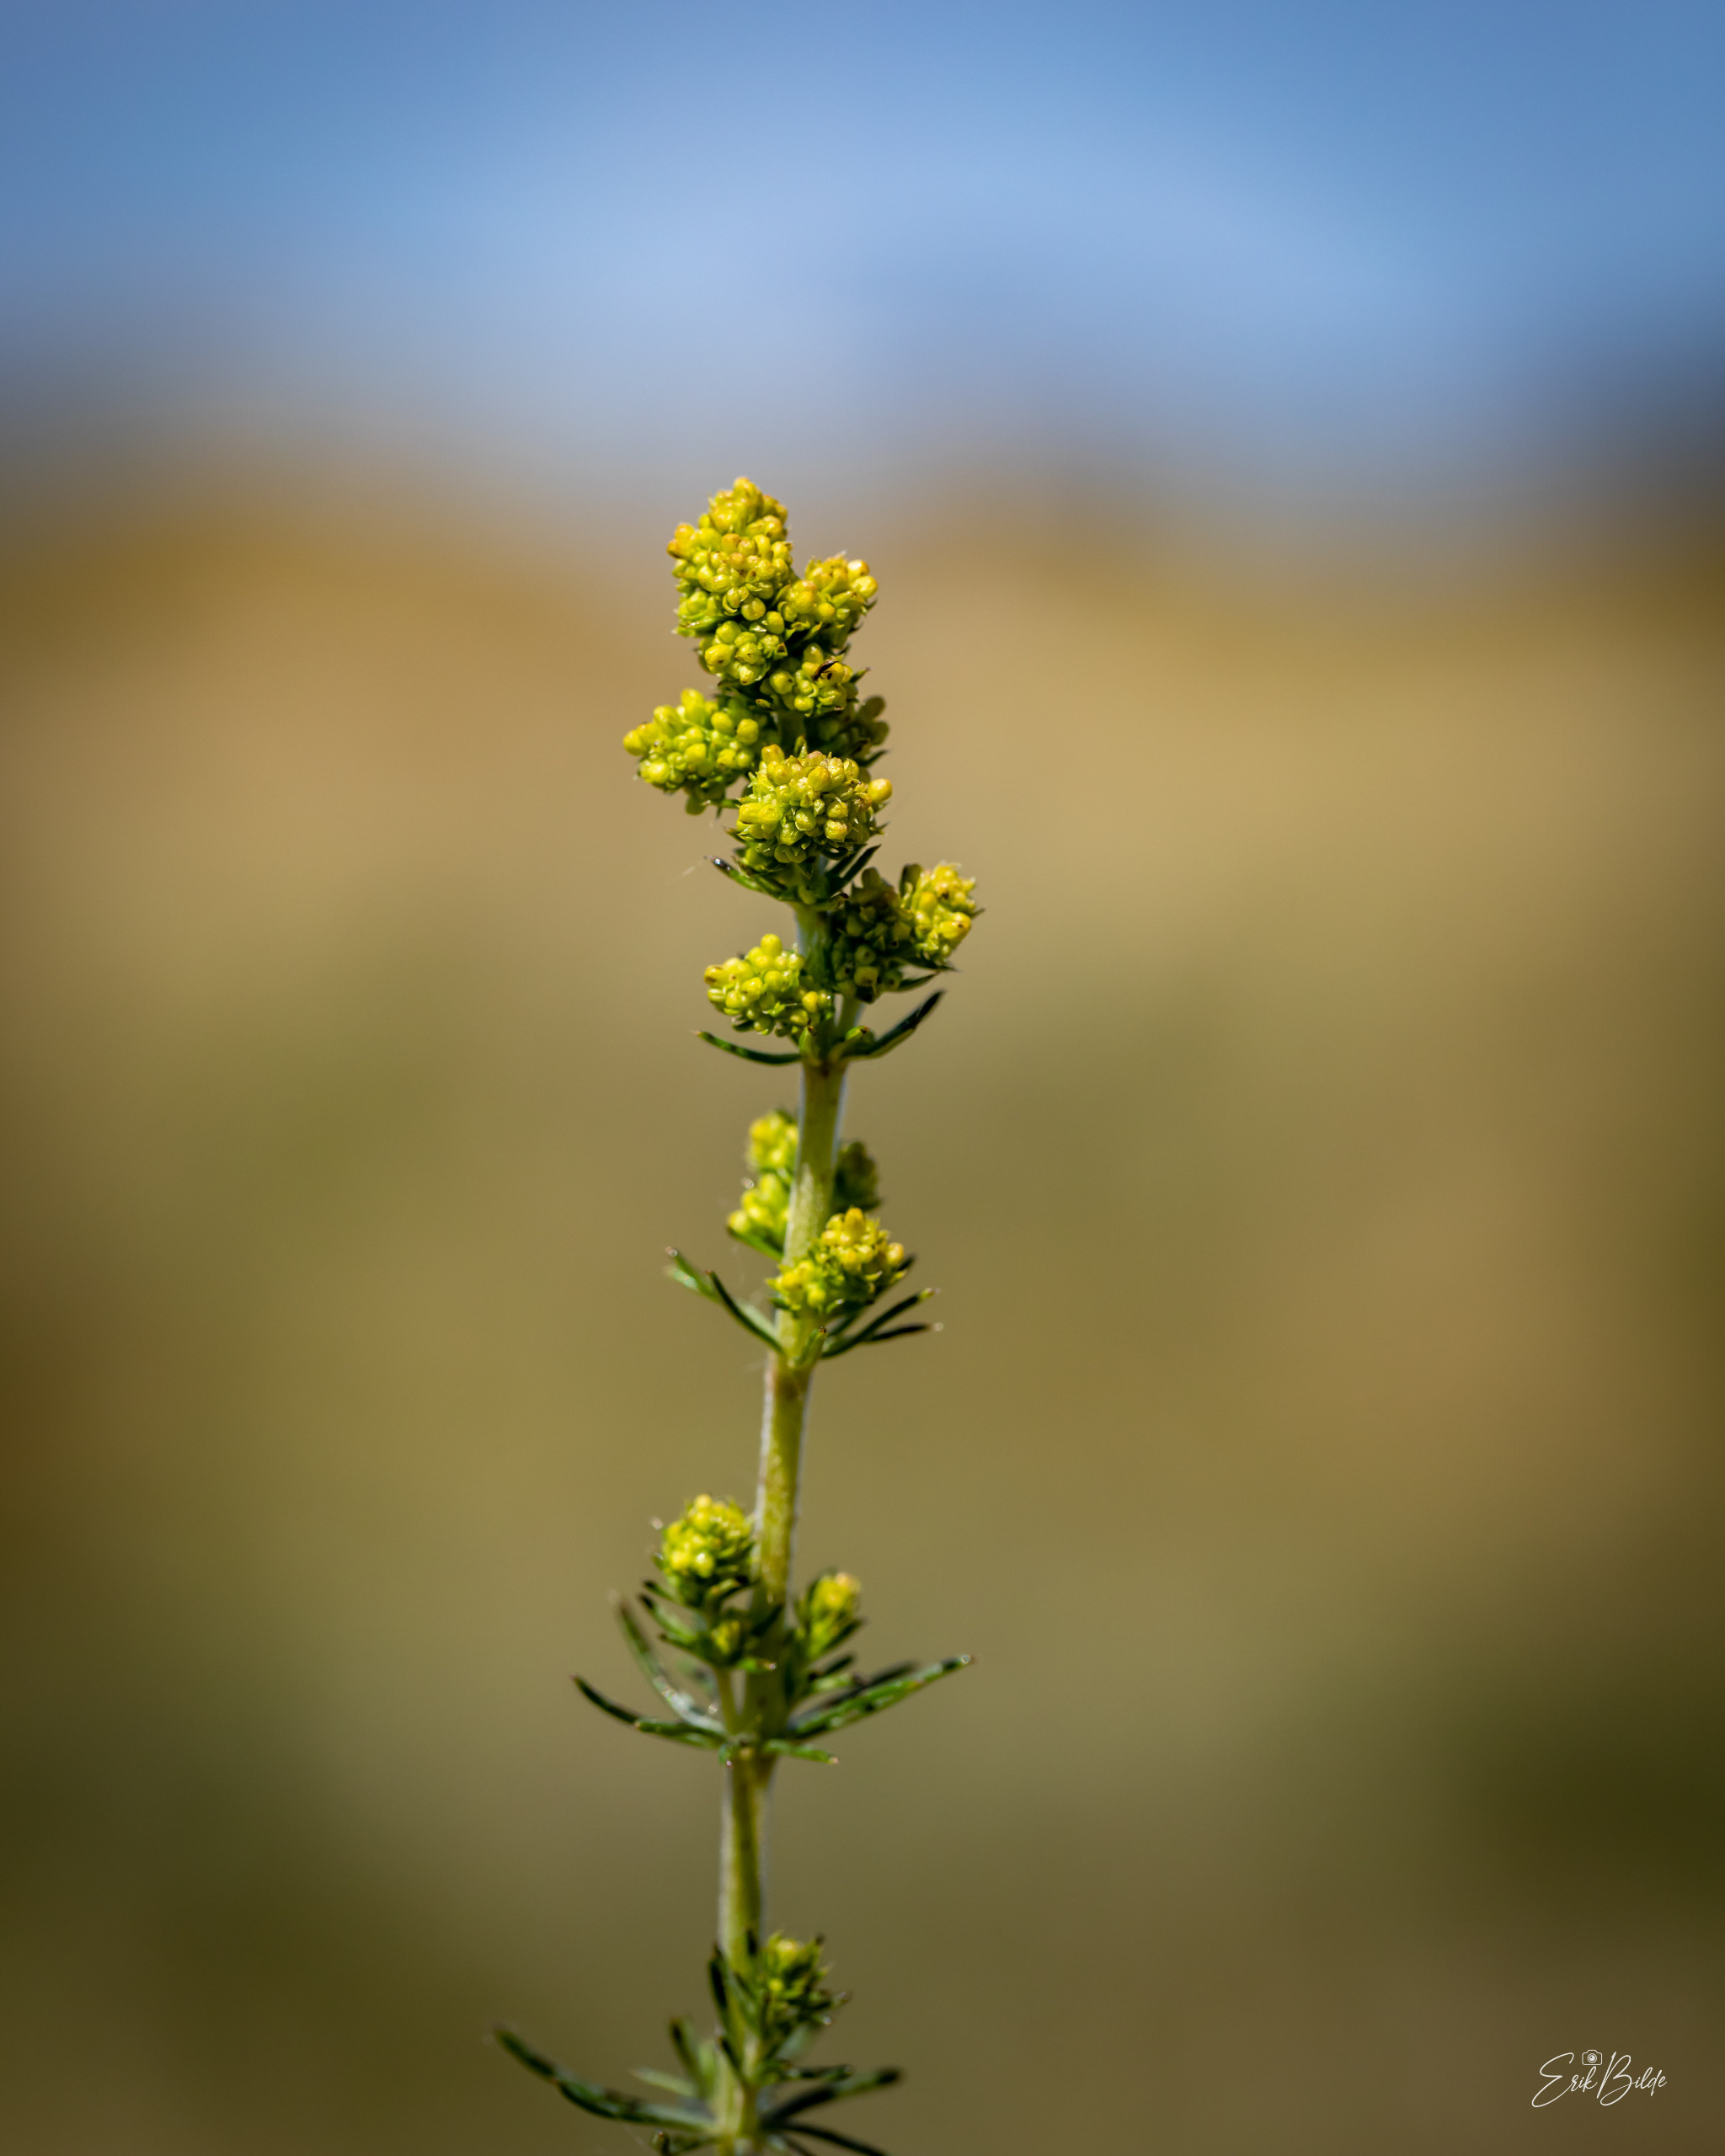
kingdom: Plantae
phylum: Tracheophyta
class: Magnoliopsida
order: Gentianales
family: Rubiaceae
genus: Galium
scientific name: Galium verum
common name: Gul snerre
